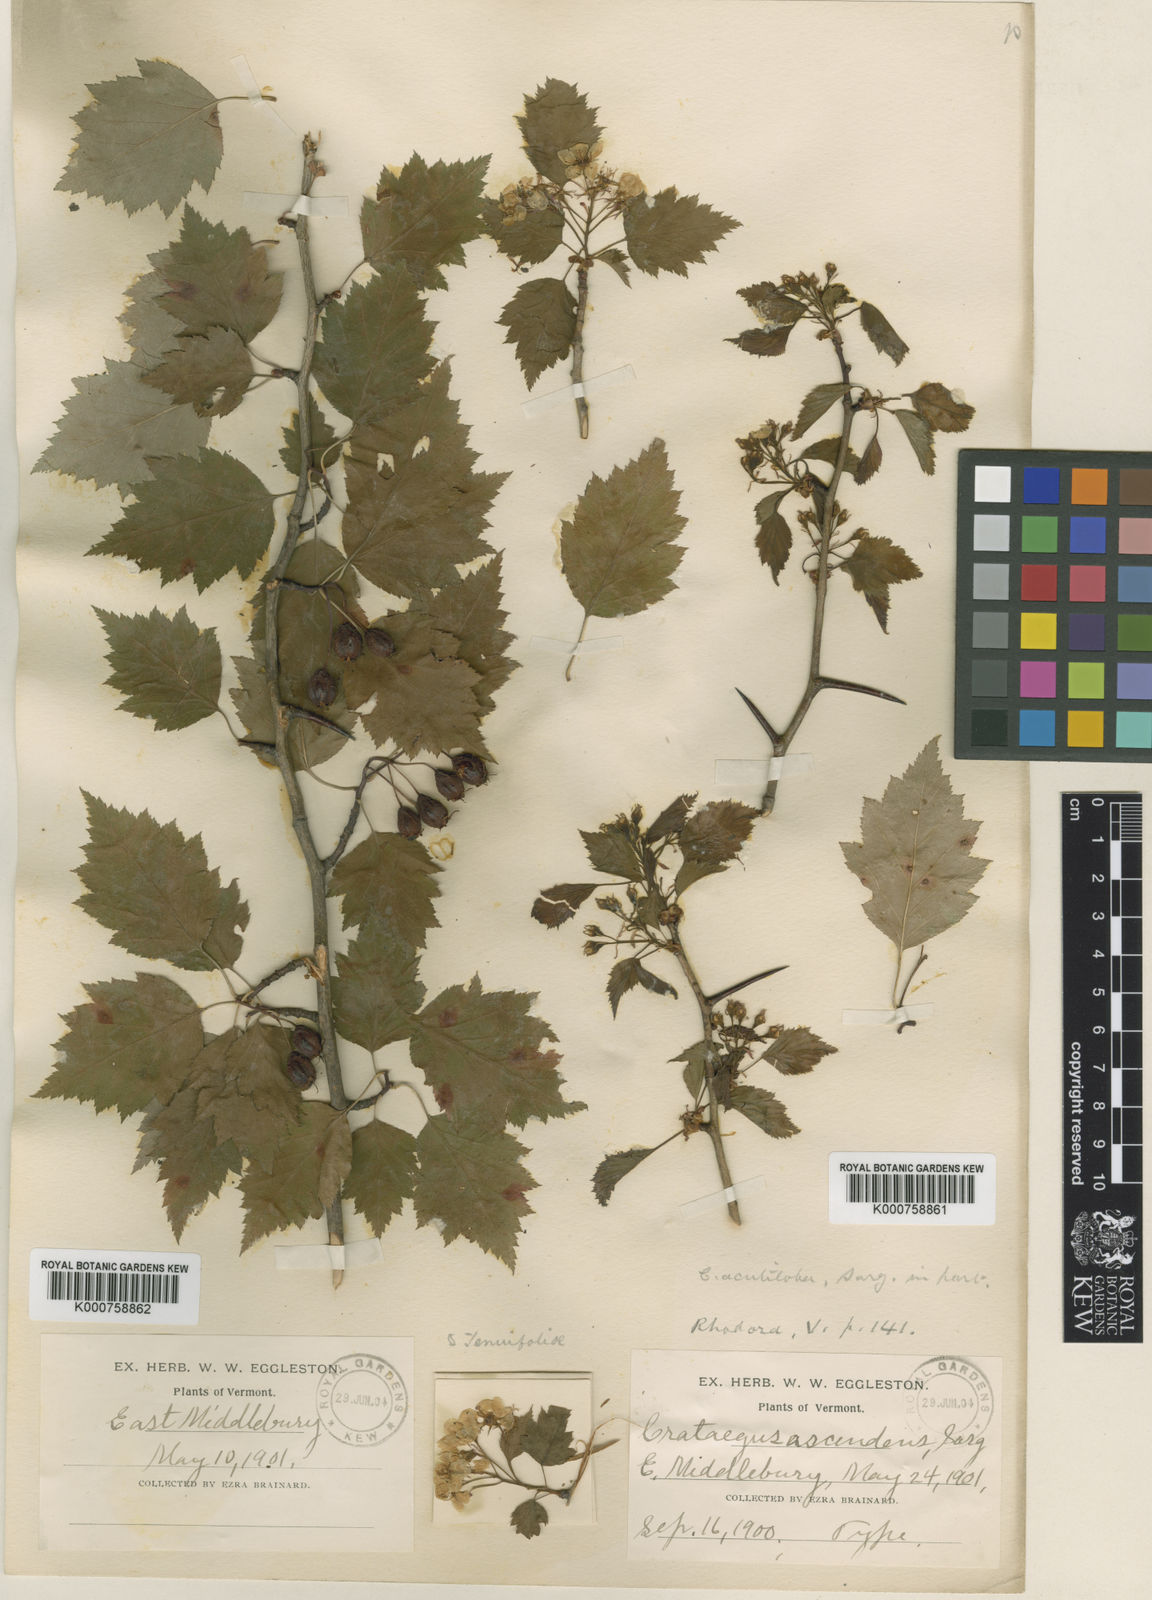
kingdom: Plantae
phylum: Tracheophyta
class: Magnoliopsida
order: Rosales
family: Rosaceae
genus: Crataegus
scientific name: Crataegus ascendens
